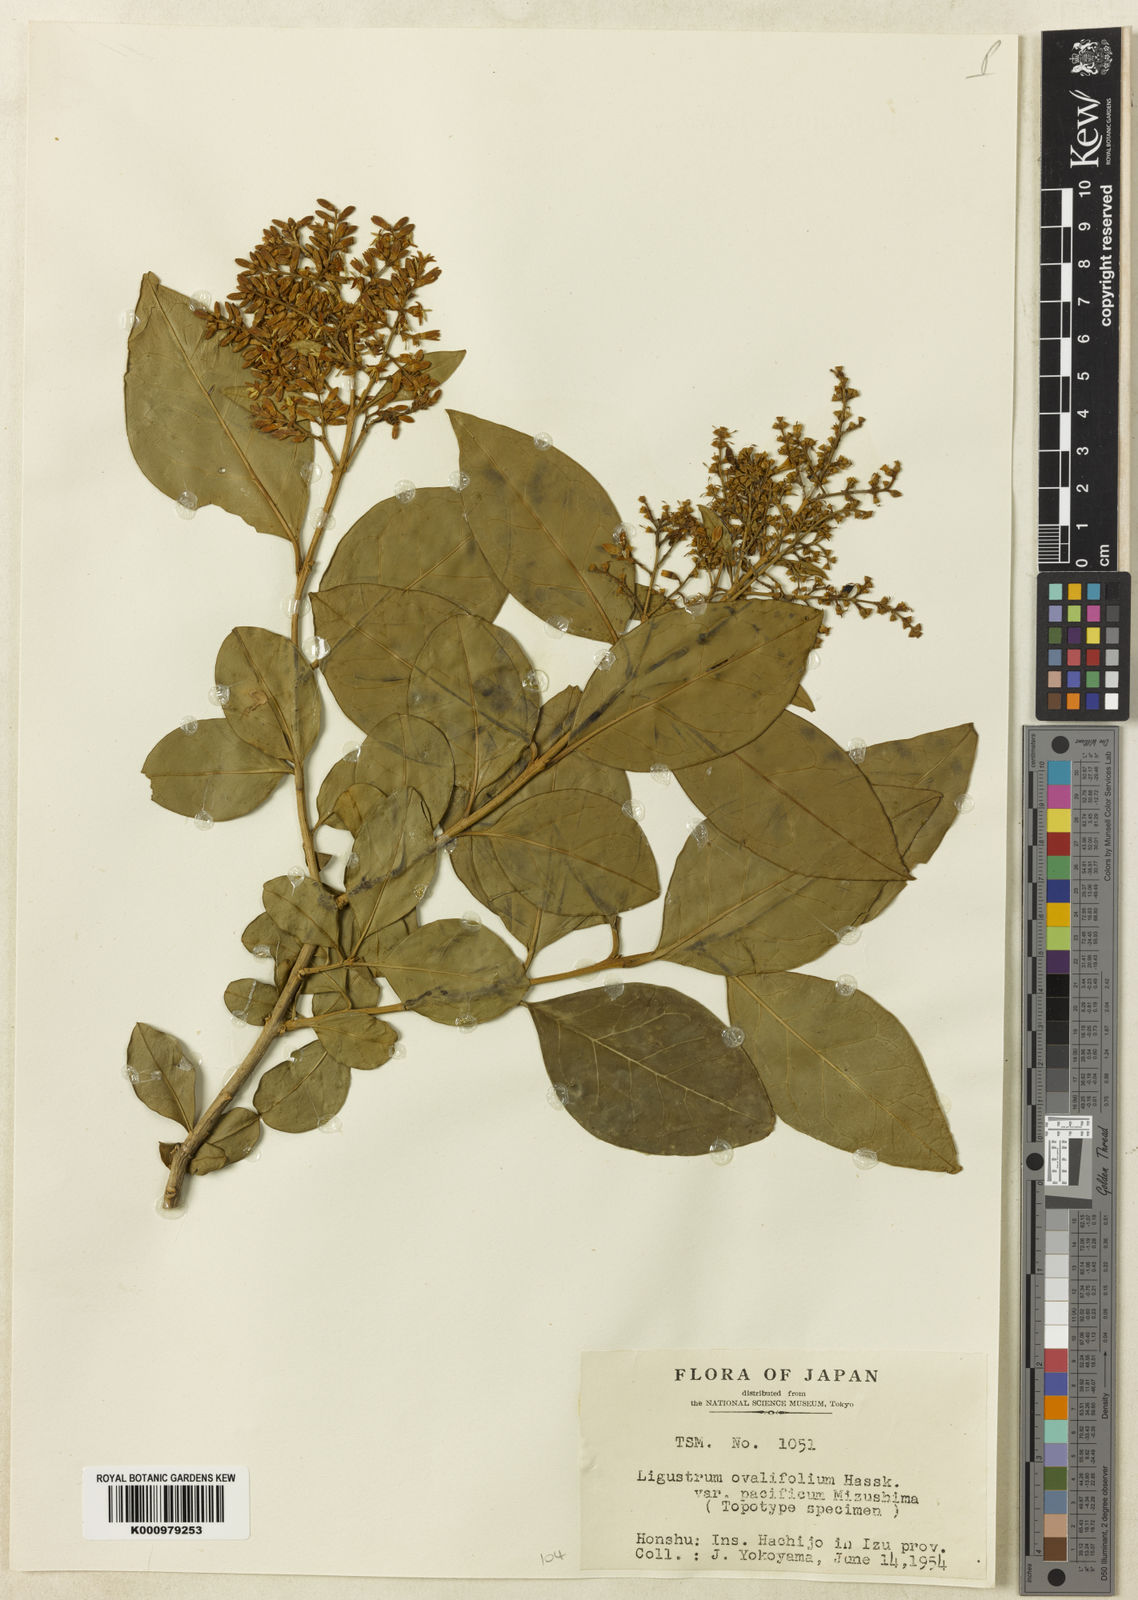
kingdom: Plantae
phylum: Tracheophyta
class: Magnoliopsida
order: Lamiales
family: Oleaceae
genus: Ligustrum
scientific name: Ligustrum ovalifolium
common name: California privet
